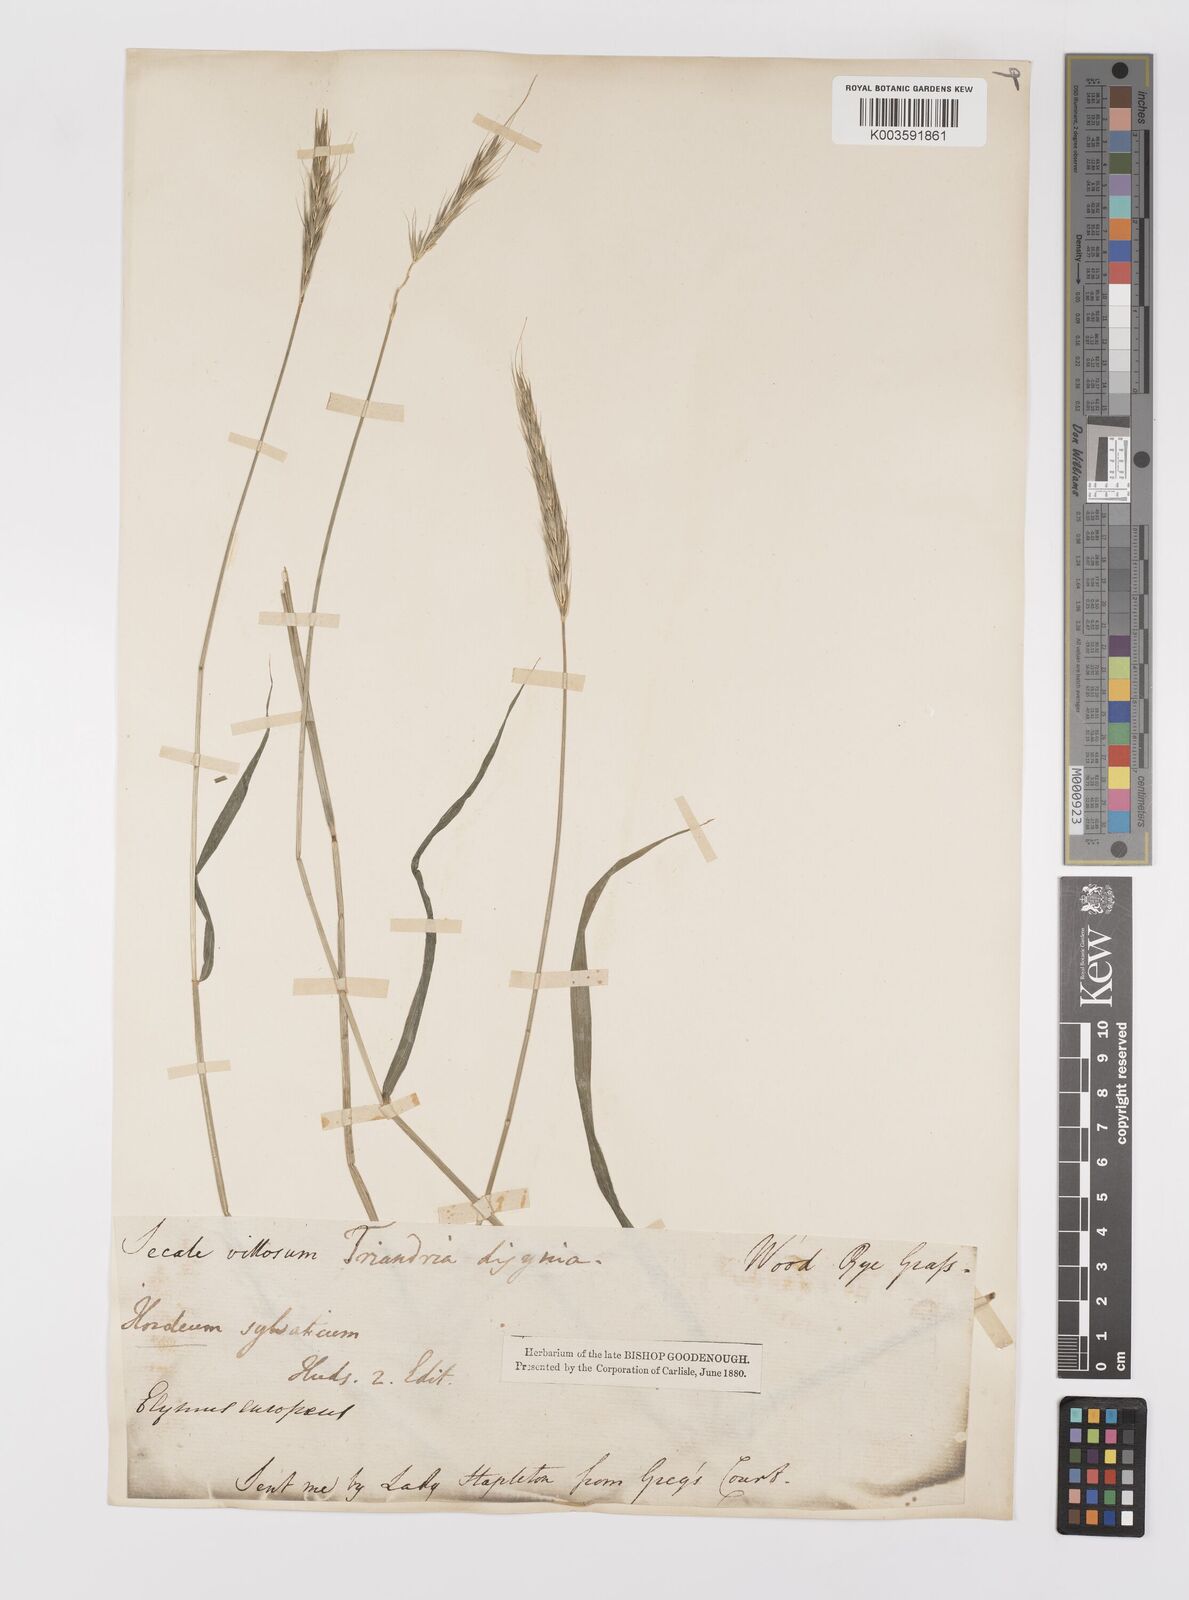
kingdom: Plantae
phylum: Tracheophyta
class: Liliopsida
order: Poales
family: Poaceae
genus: Hordelymus
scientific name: Hordelymus europaeus
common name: Wood-barley
